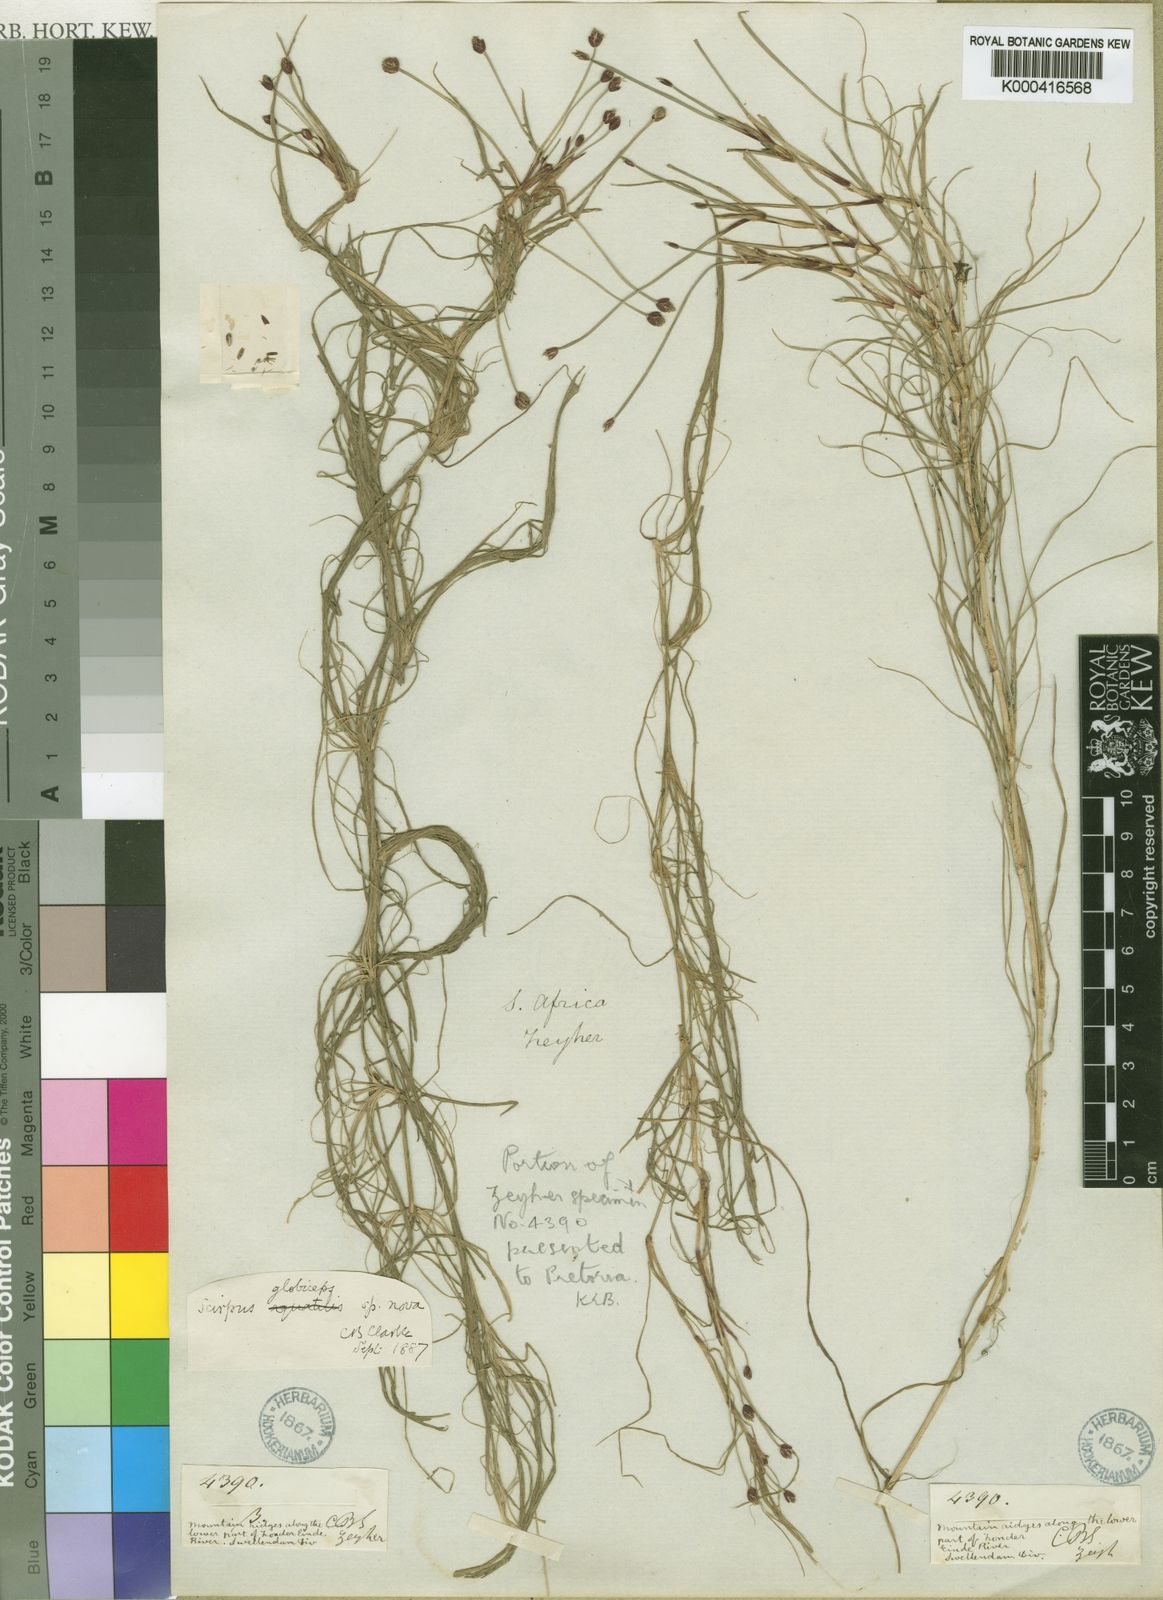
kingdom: Plantae
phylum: Tracheophyta
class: Liliopsida
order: Poales
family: Cyperaceae
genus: Isolepis
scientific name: Isolepis rubicunda
